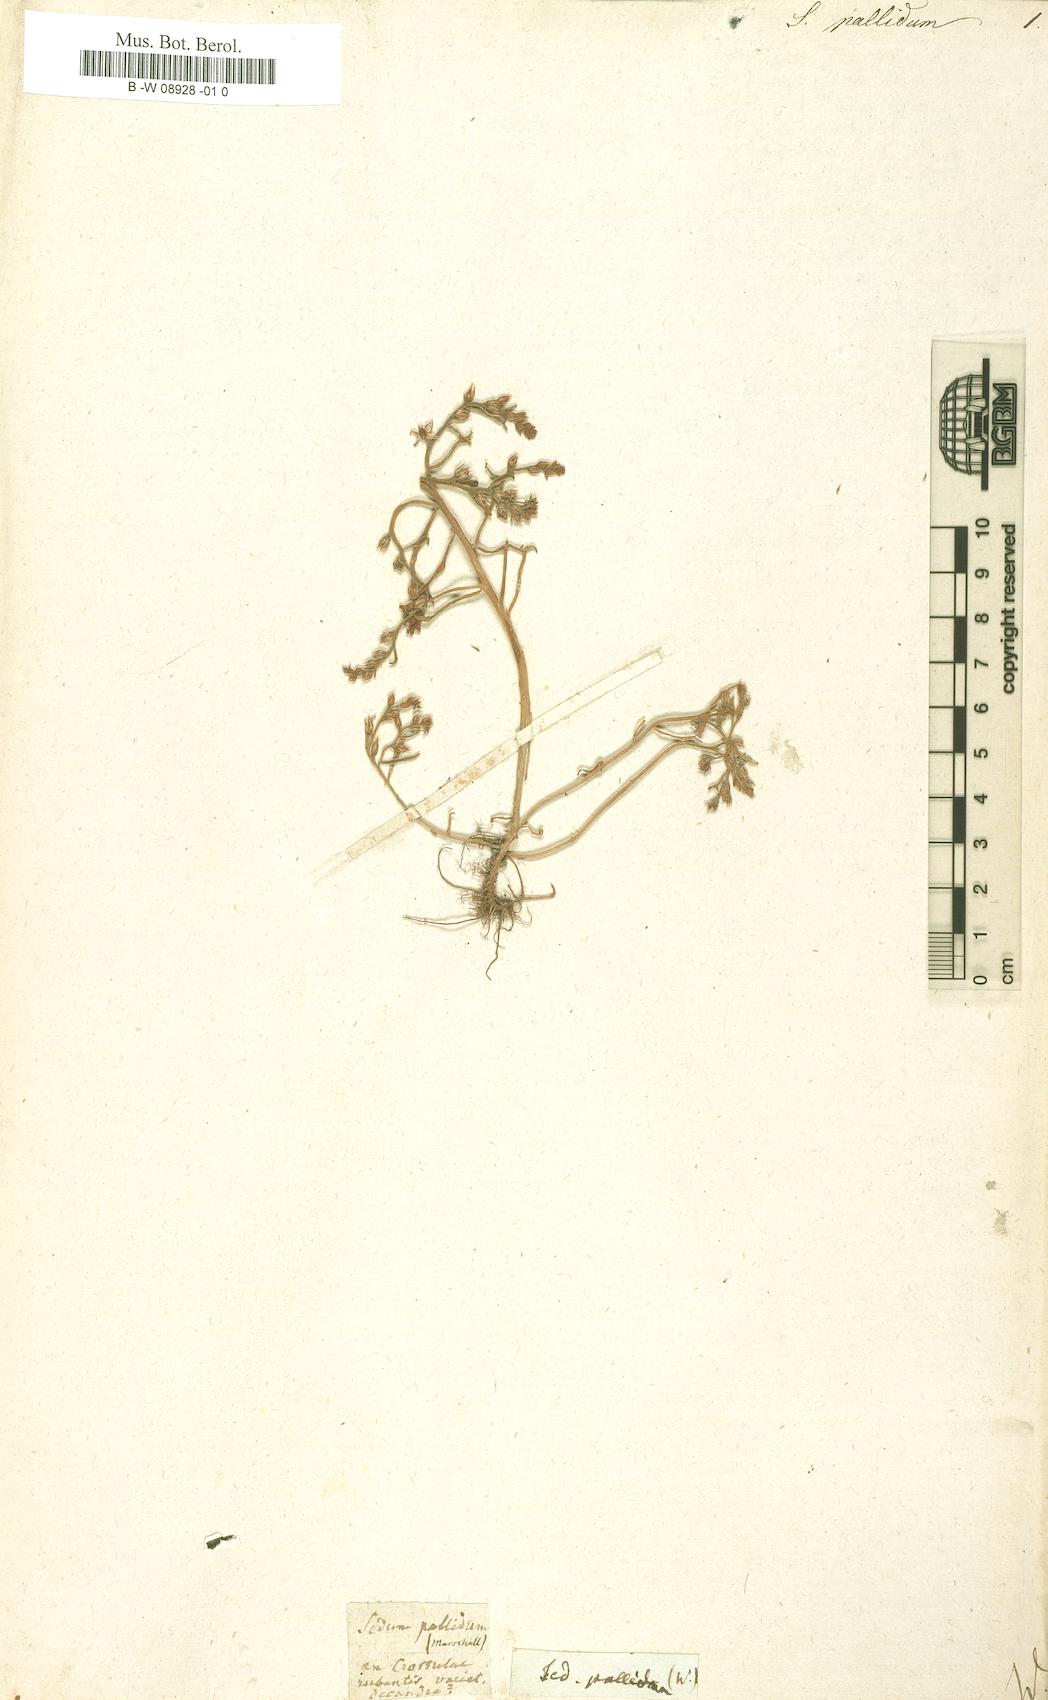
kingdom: Plantae
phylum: Tracheophyta
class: Magnoliopsida
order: Saxifragales
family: Crassulaceae
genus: Sedum
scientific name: Sedum pallidum
